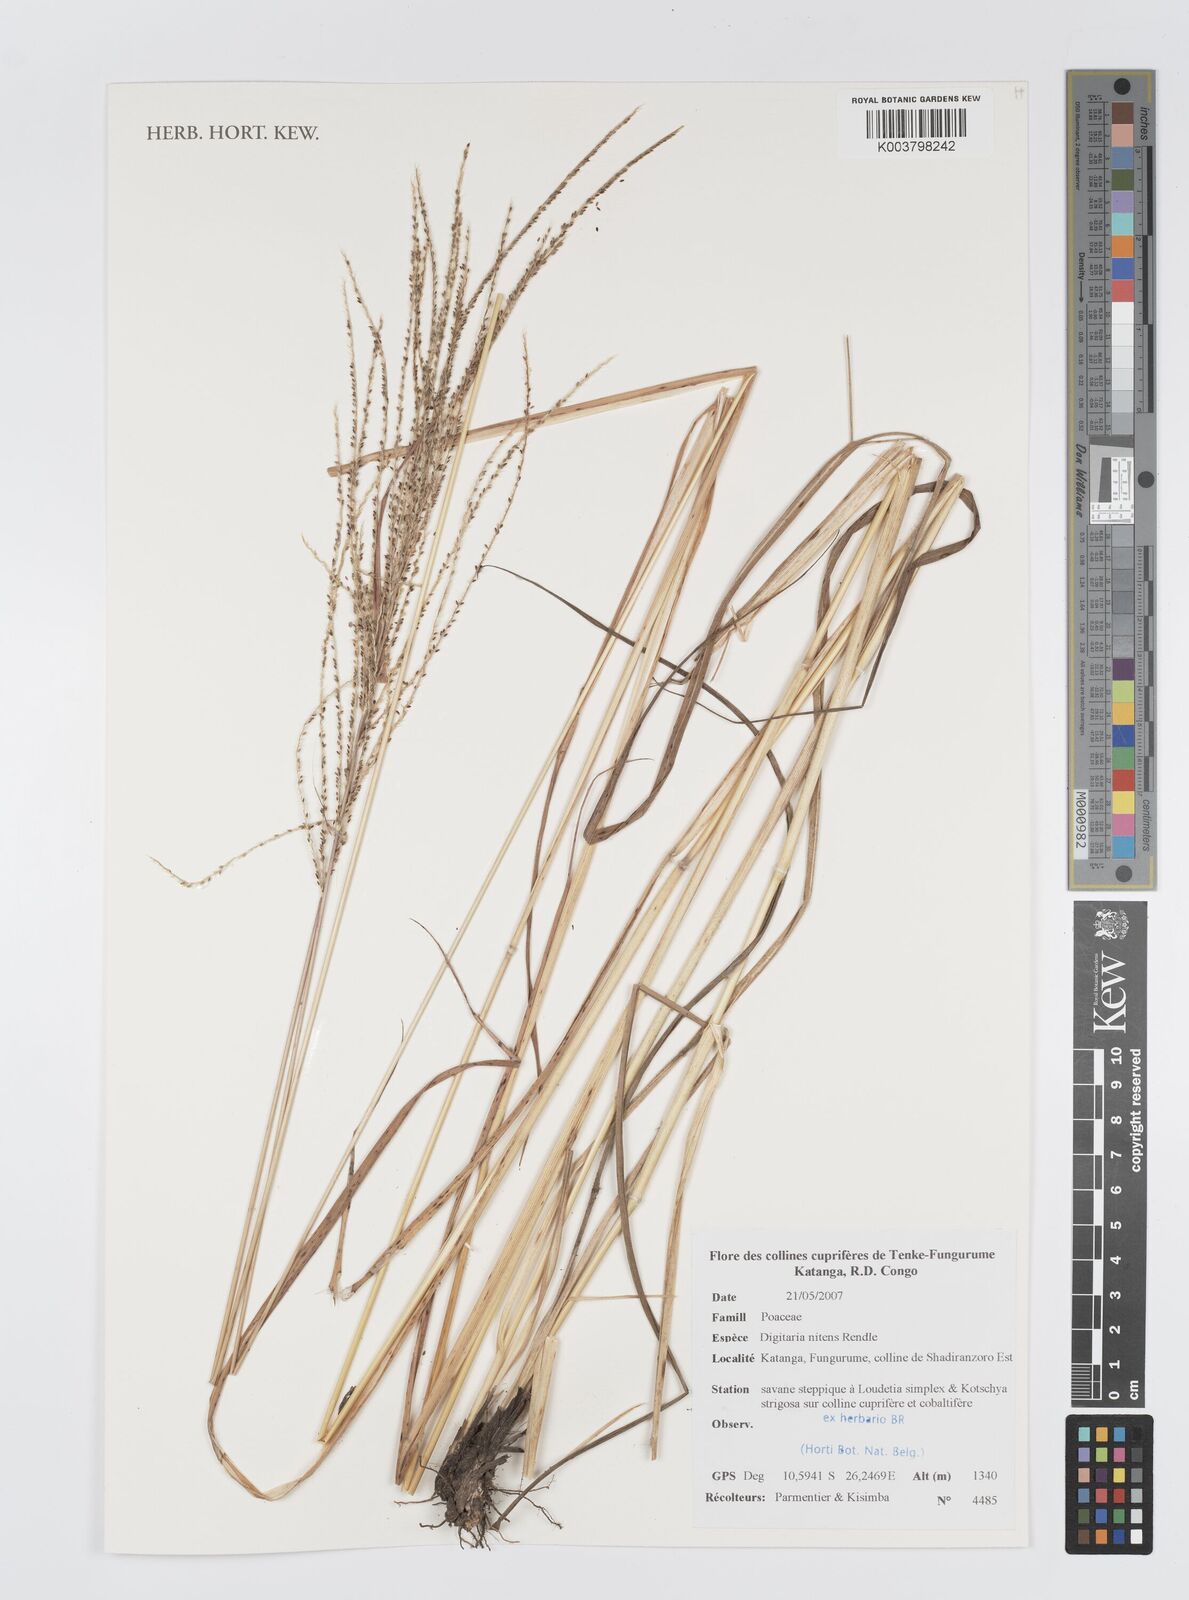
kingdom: Plantae
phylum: Tracheophyta
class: Liliopsida
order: Poales
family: Poaceae
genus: Digitaria
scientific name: Digitaria flaccida
